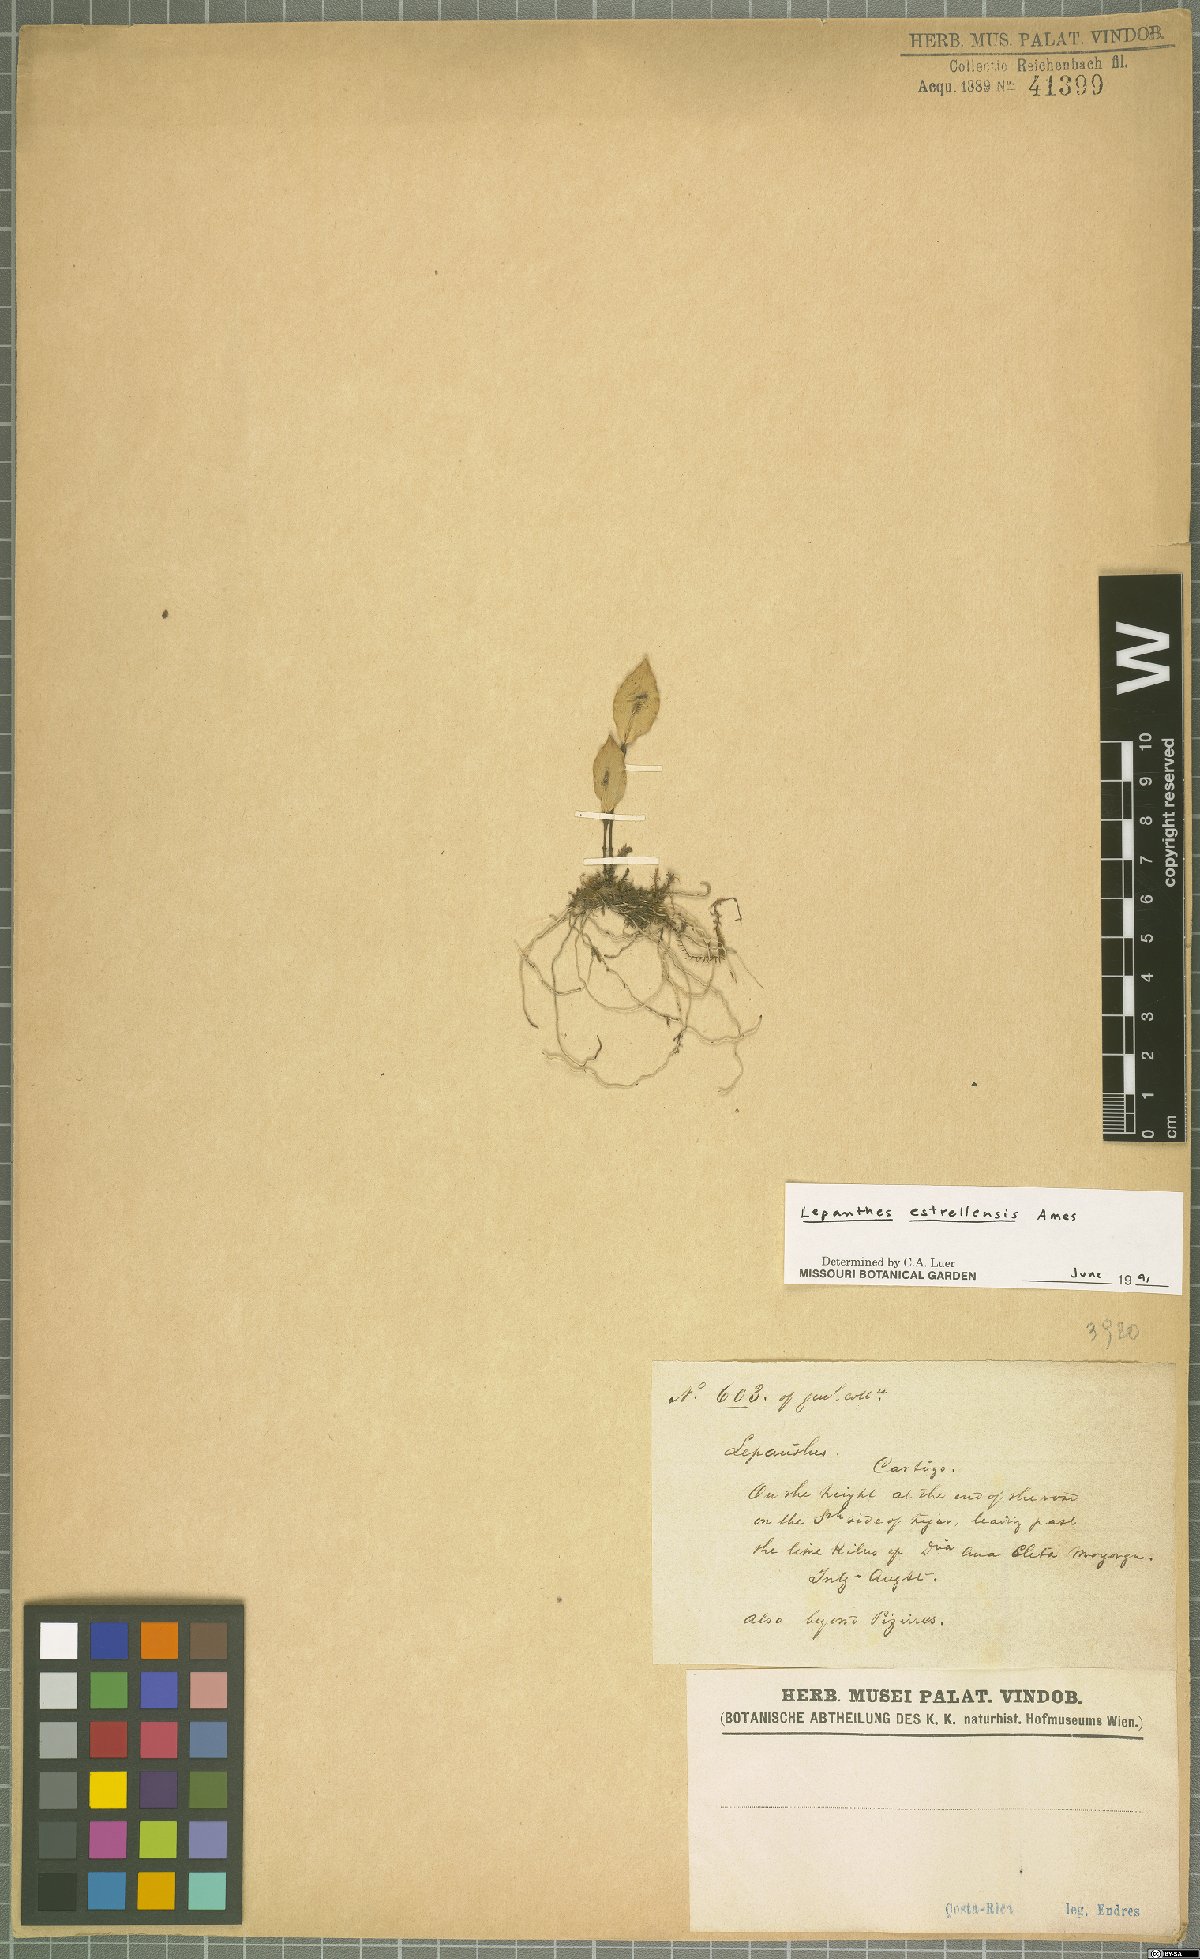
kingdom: Plantae
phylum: Tracheophyta
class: Liliopsida
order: Asparagales
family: Orchidaceae
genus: Lepanthes
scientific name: Lepanthes estrellensis
